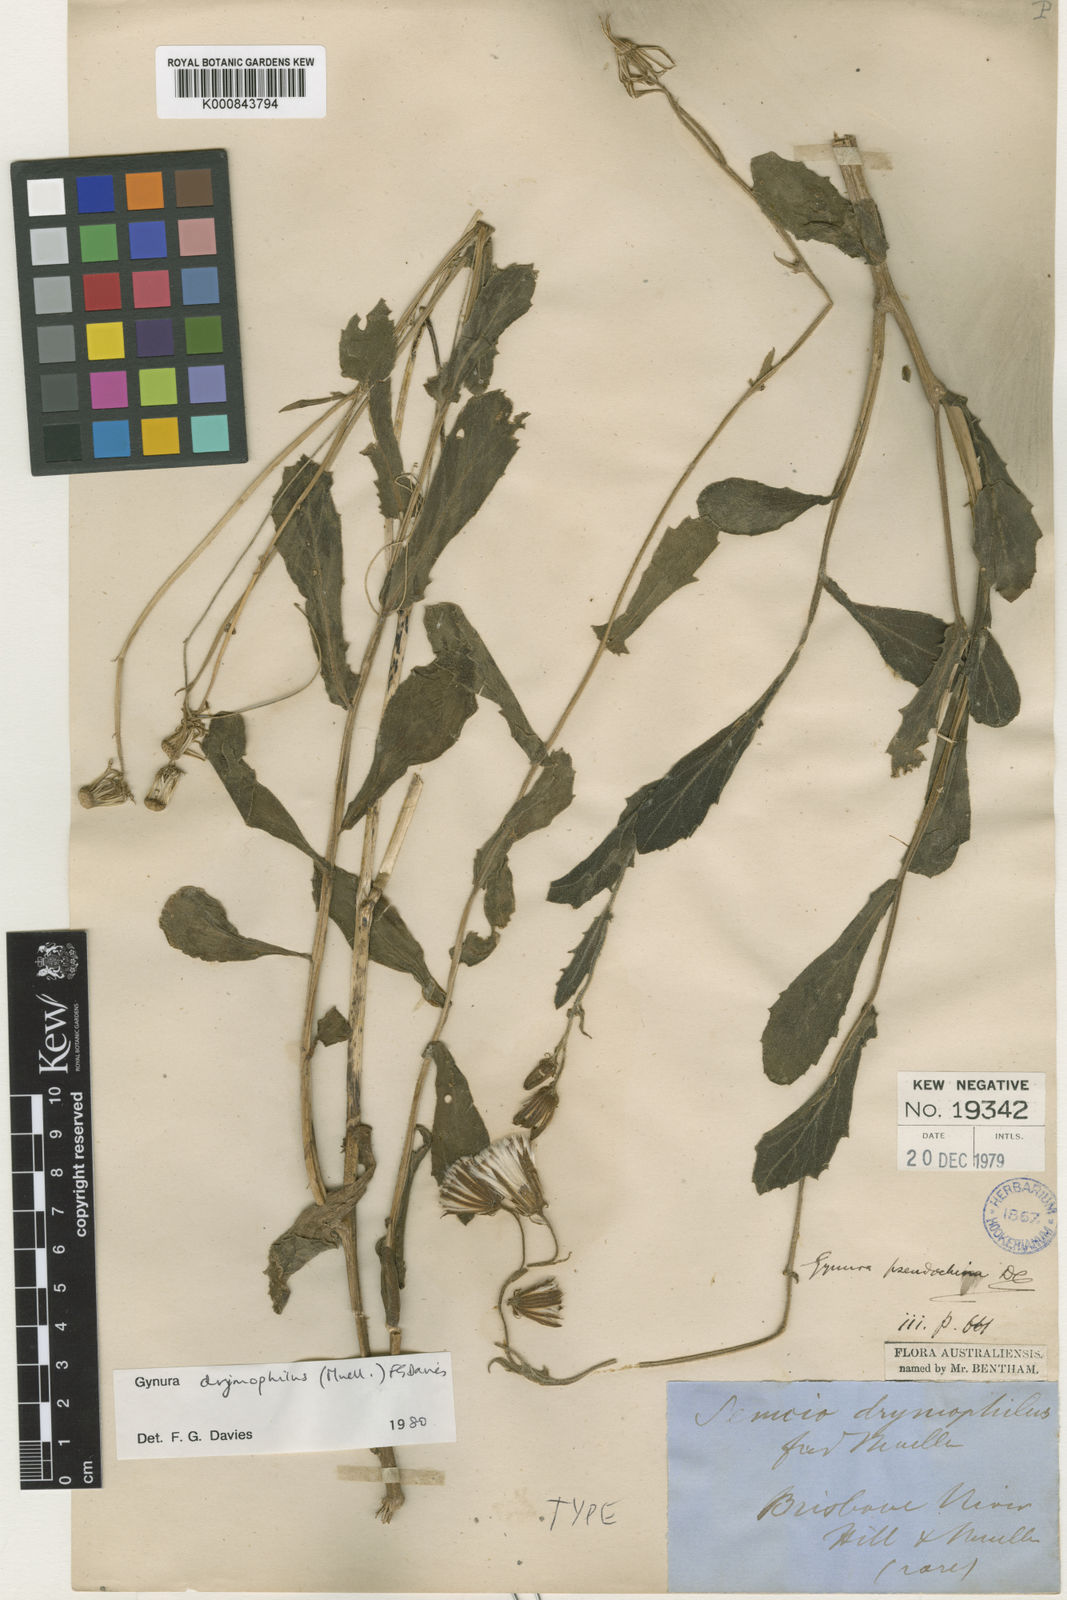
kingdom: Plantae
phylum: Tracheophyta
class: Magnoliopsida
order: Asterales
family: Asteraceae
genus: Gynura
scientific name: Gynura
